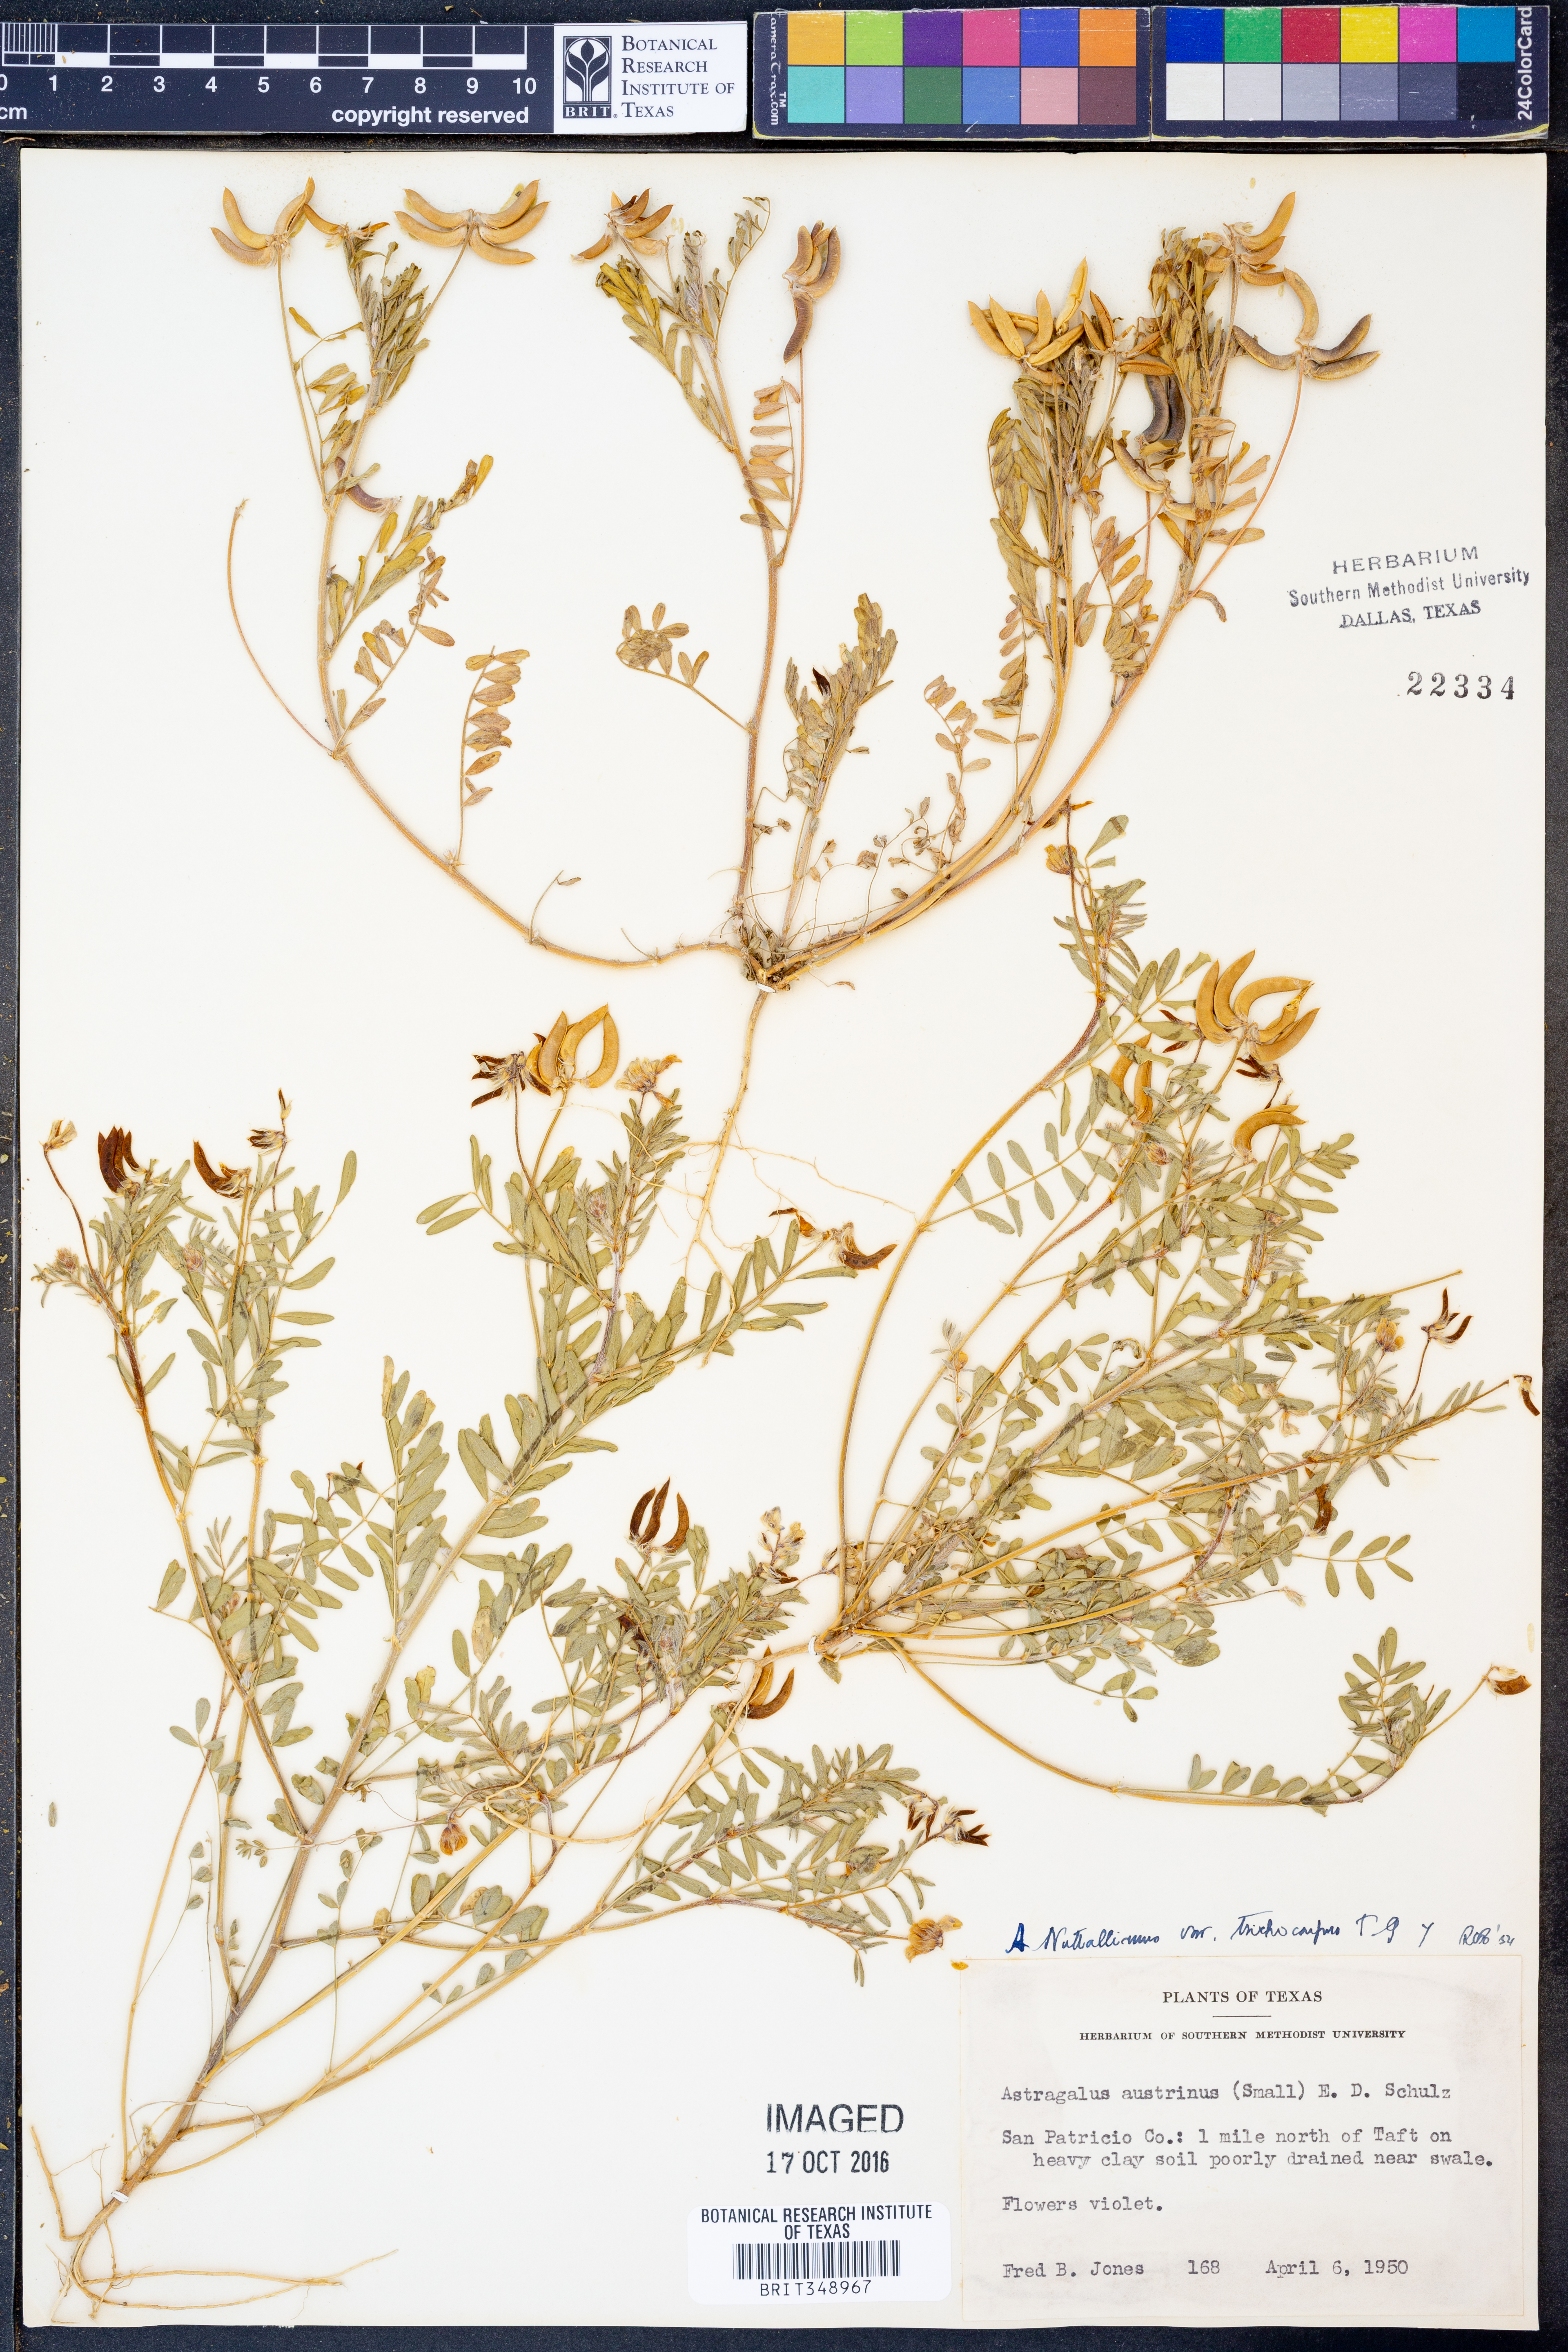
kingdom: Plantae
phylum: Tracheophyta
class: Magnoliopsida
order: Fabales
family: Fabaceae
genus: Astragalus
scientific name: Astragalus nuttallianus
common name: Smallflowered milkvetch
